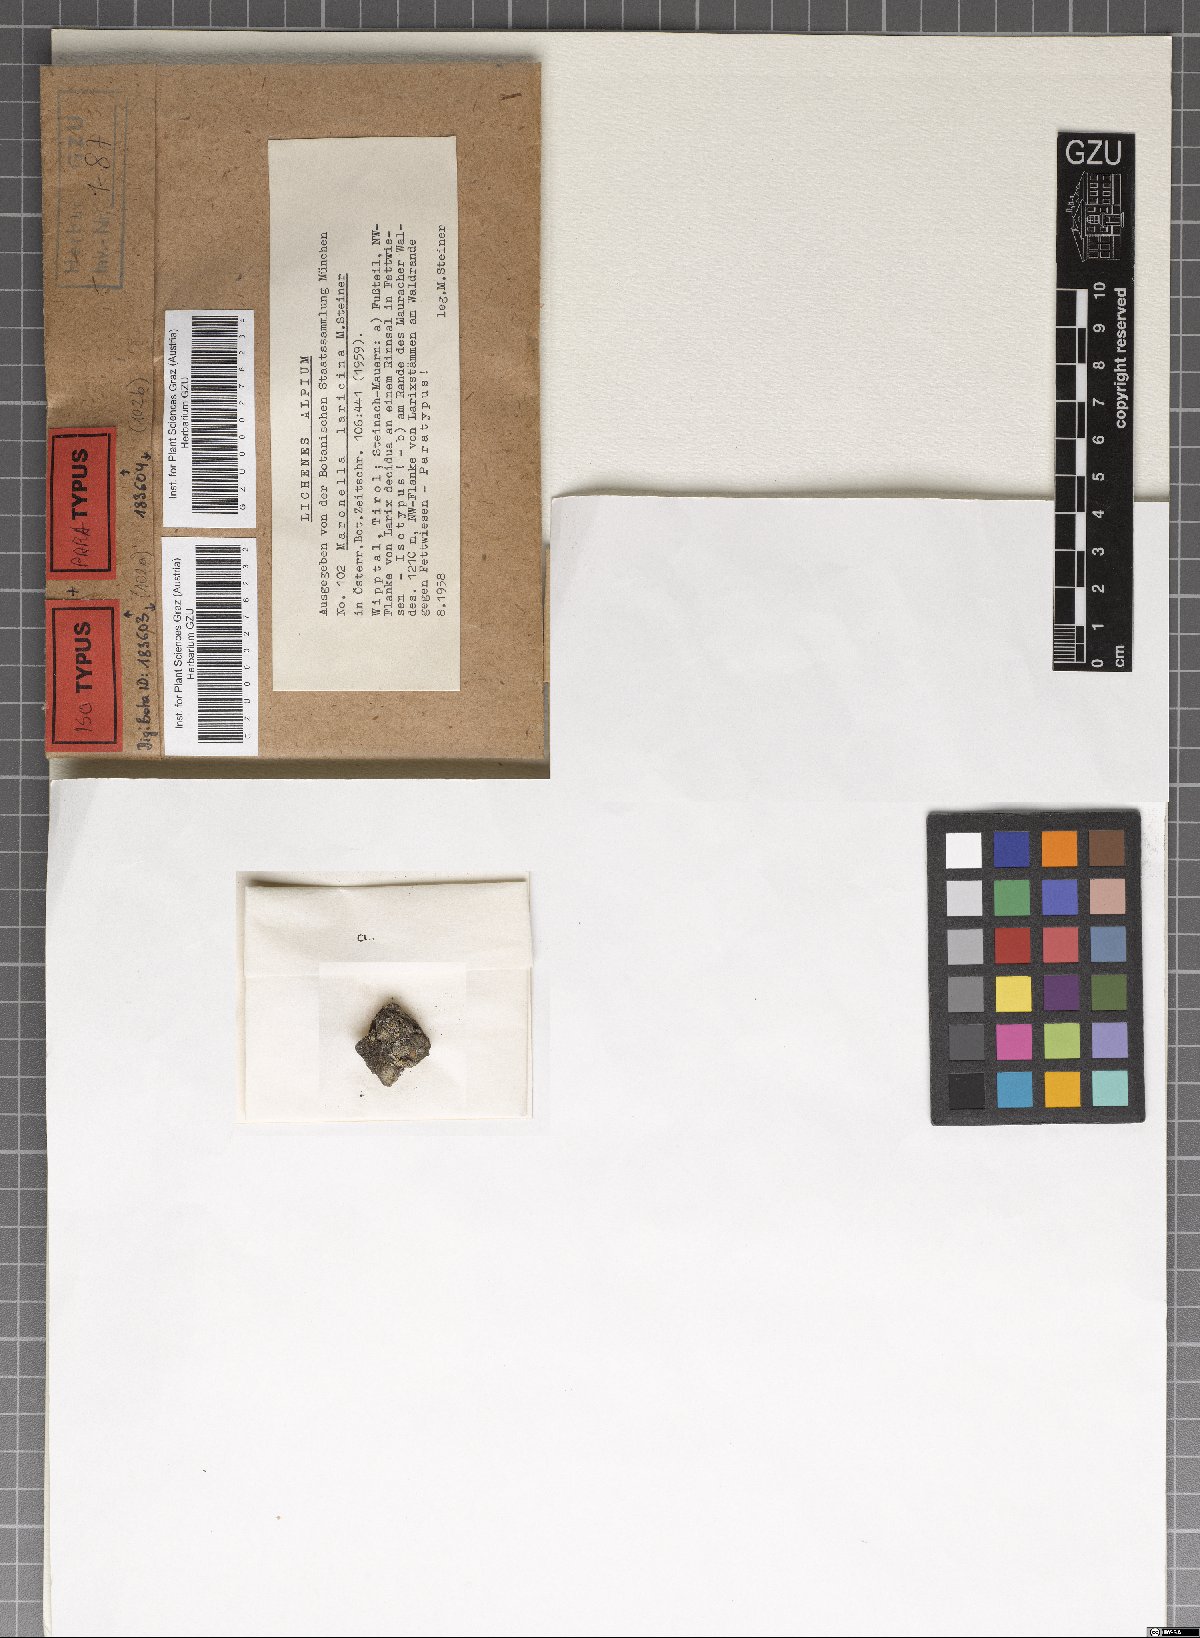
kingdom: Fungi
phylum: Ascomycota
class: Lecanoromycetes
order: Acarosporales
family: Acarosporaceae
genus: Maronella
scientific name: Maronella laricina
